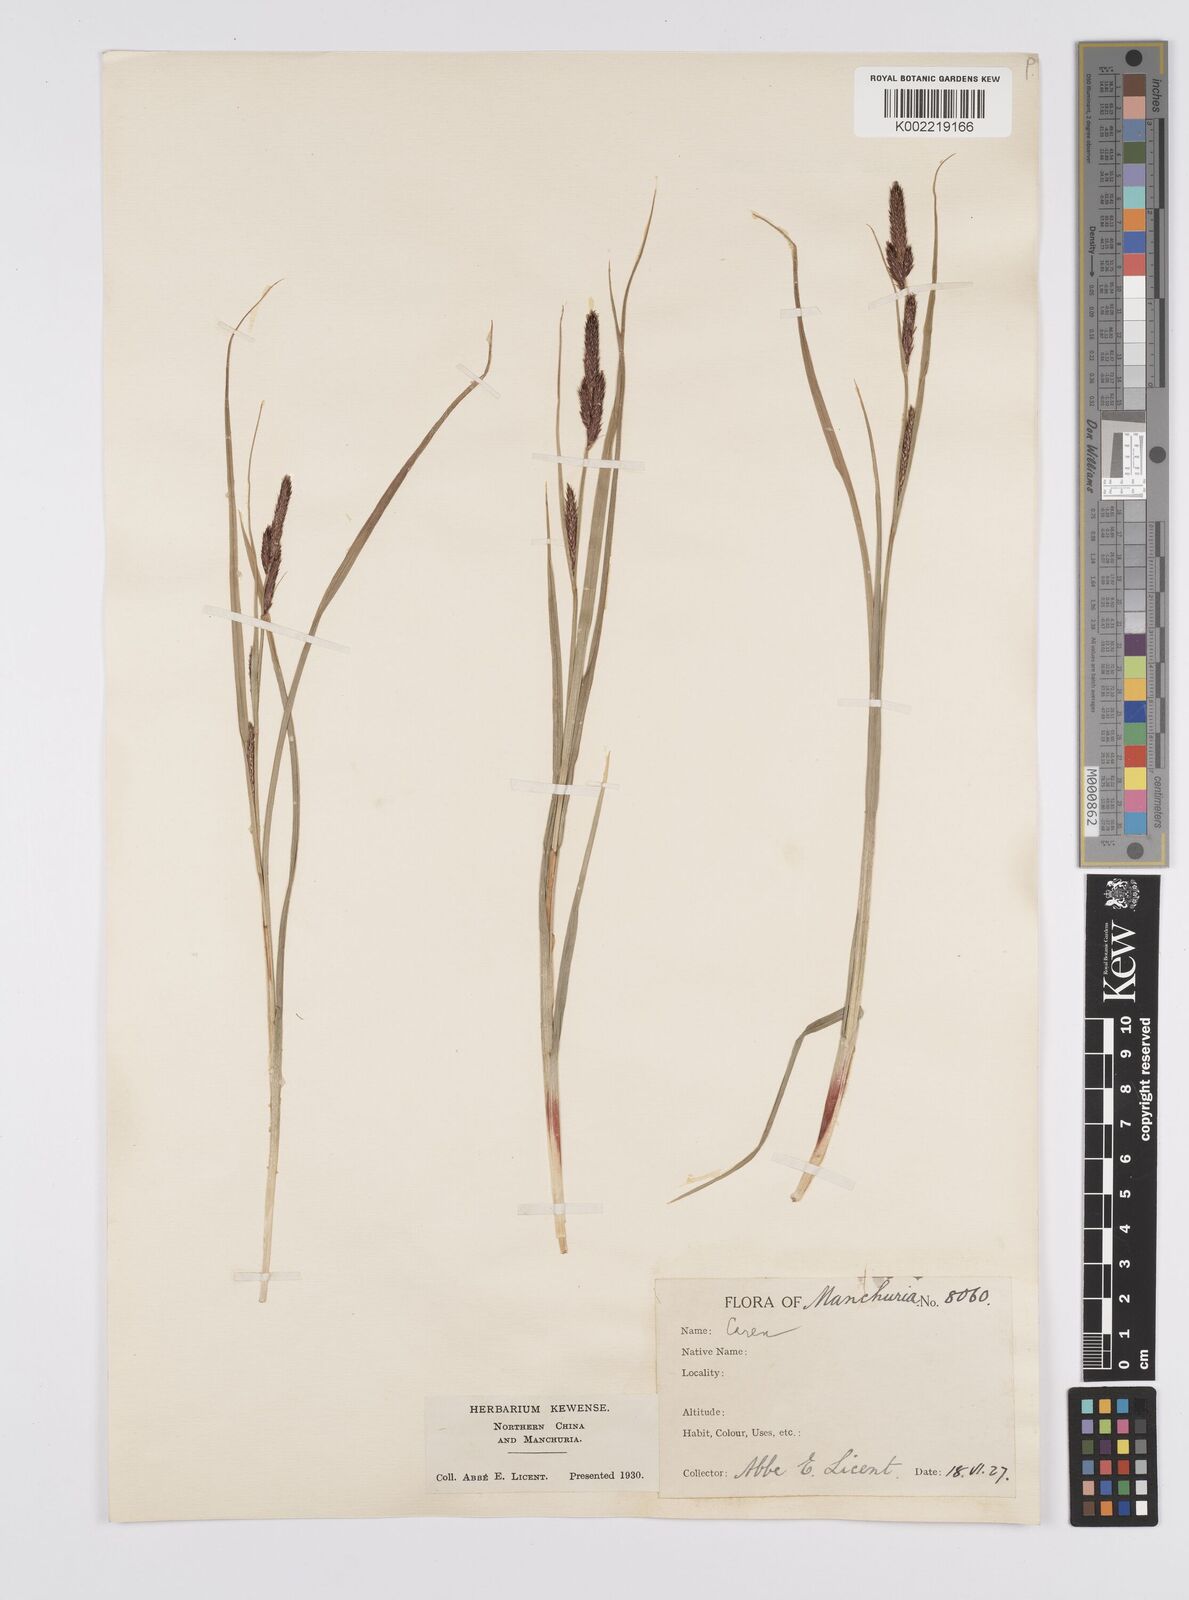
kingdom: Plantae
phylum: Tracheophyta
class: Liliopsida
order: Poales
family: Cyperaceae
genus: Carex
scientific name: Carex
